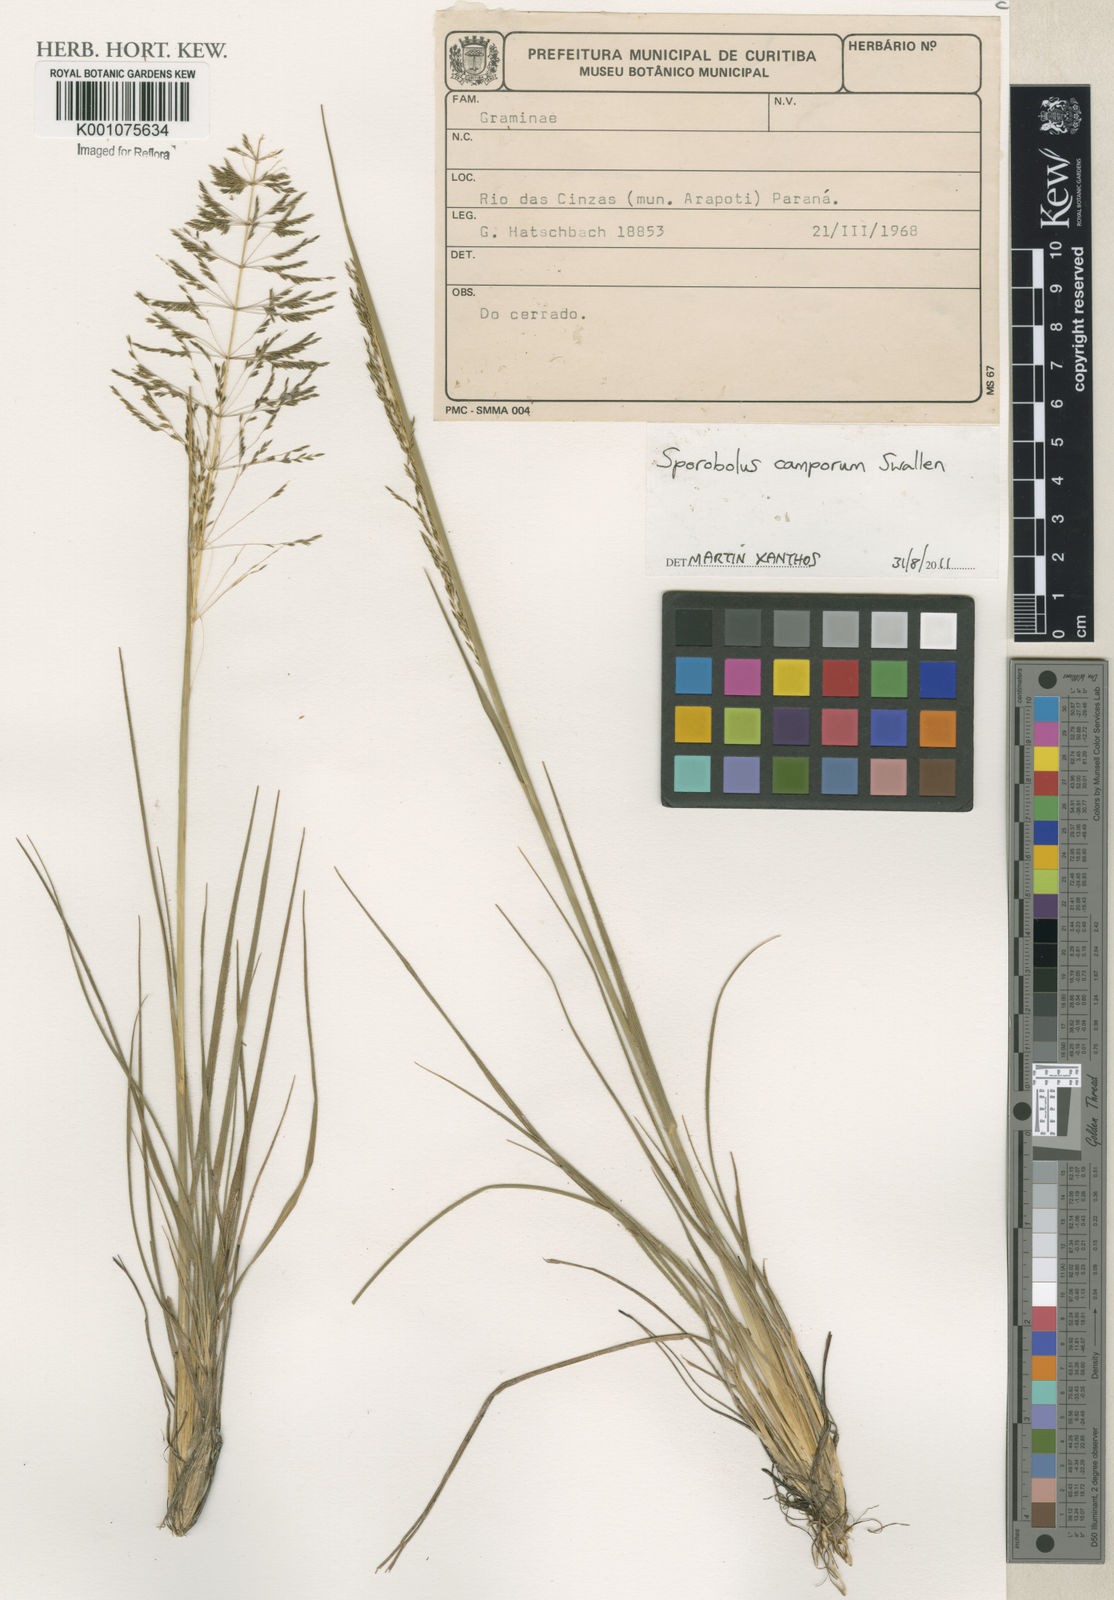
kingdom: Plantae
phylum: Tracheophyta
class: Liliopsida
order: Poales
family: Poaceae
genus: Sporobolus
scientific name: Sporobolus camporum
